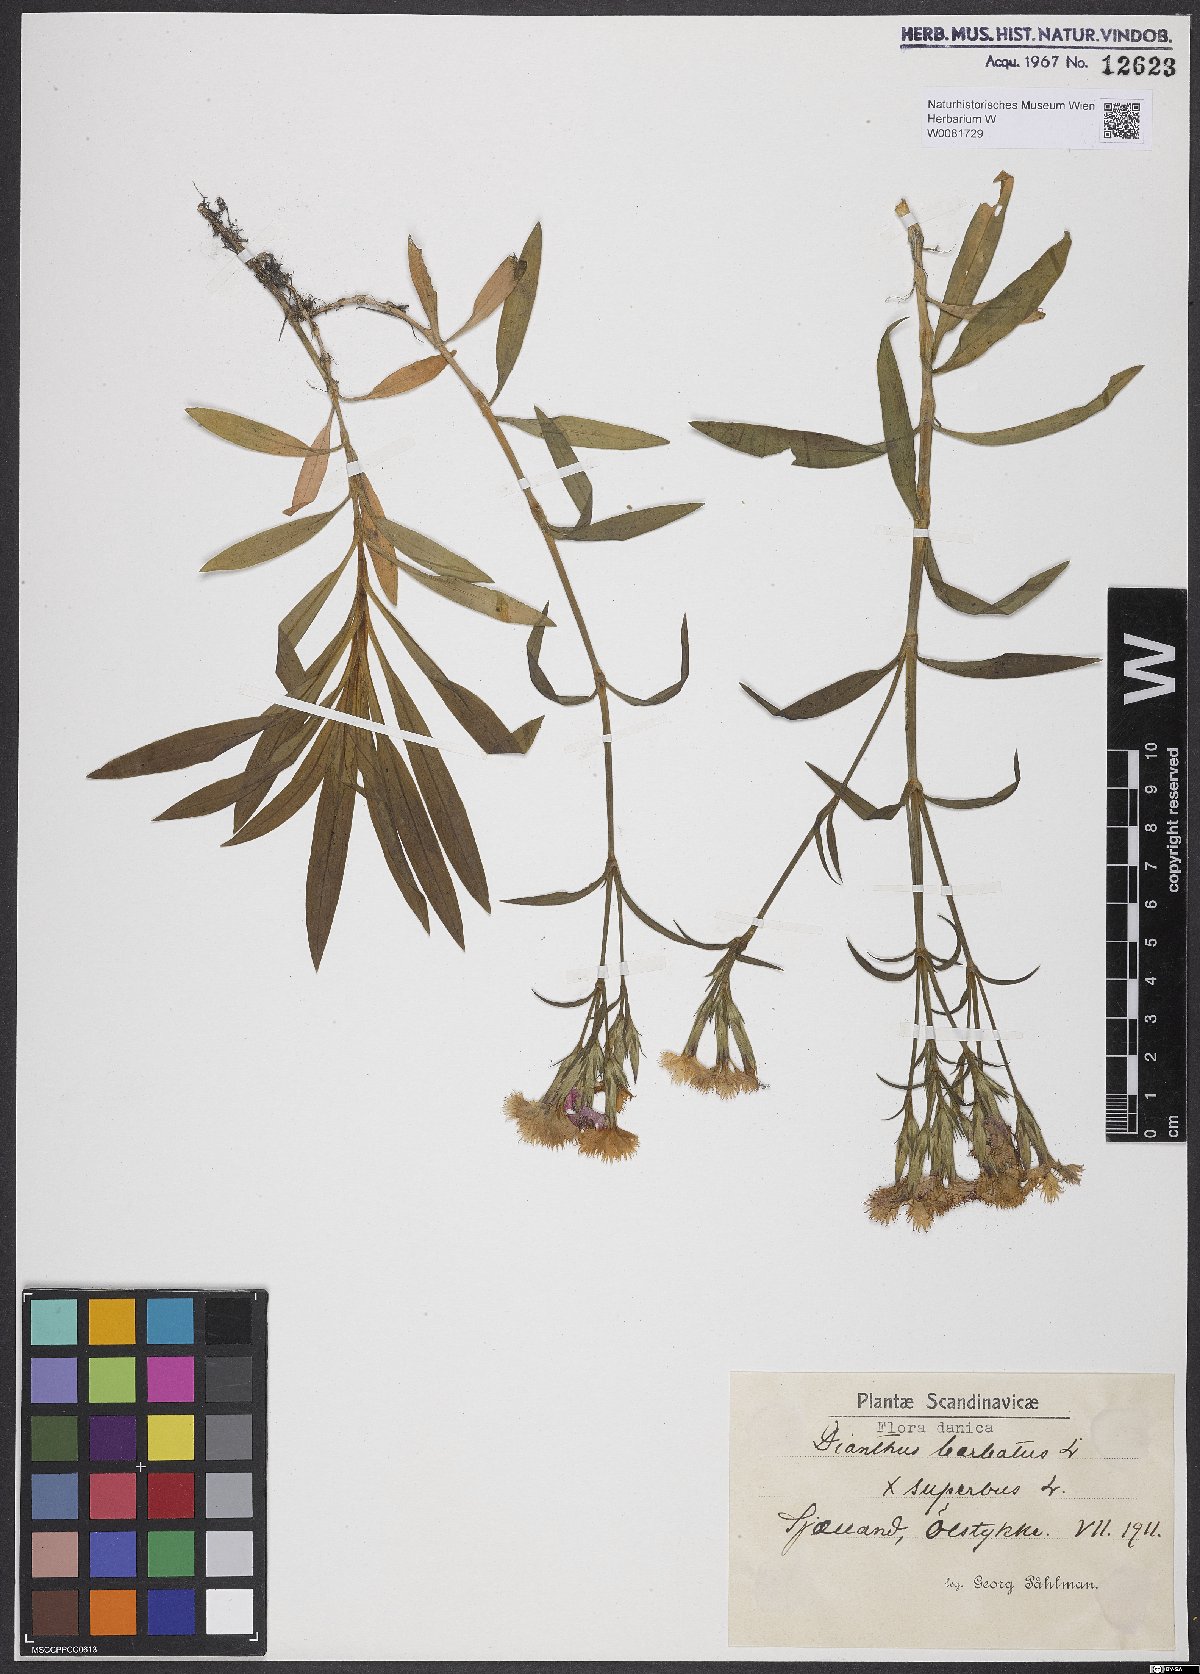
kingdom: Plantae
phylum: Tracheophyta
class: Magnoliopsida
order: Caryophyllales
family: Caryophyllaceae
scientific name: Caryophyllaceae
